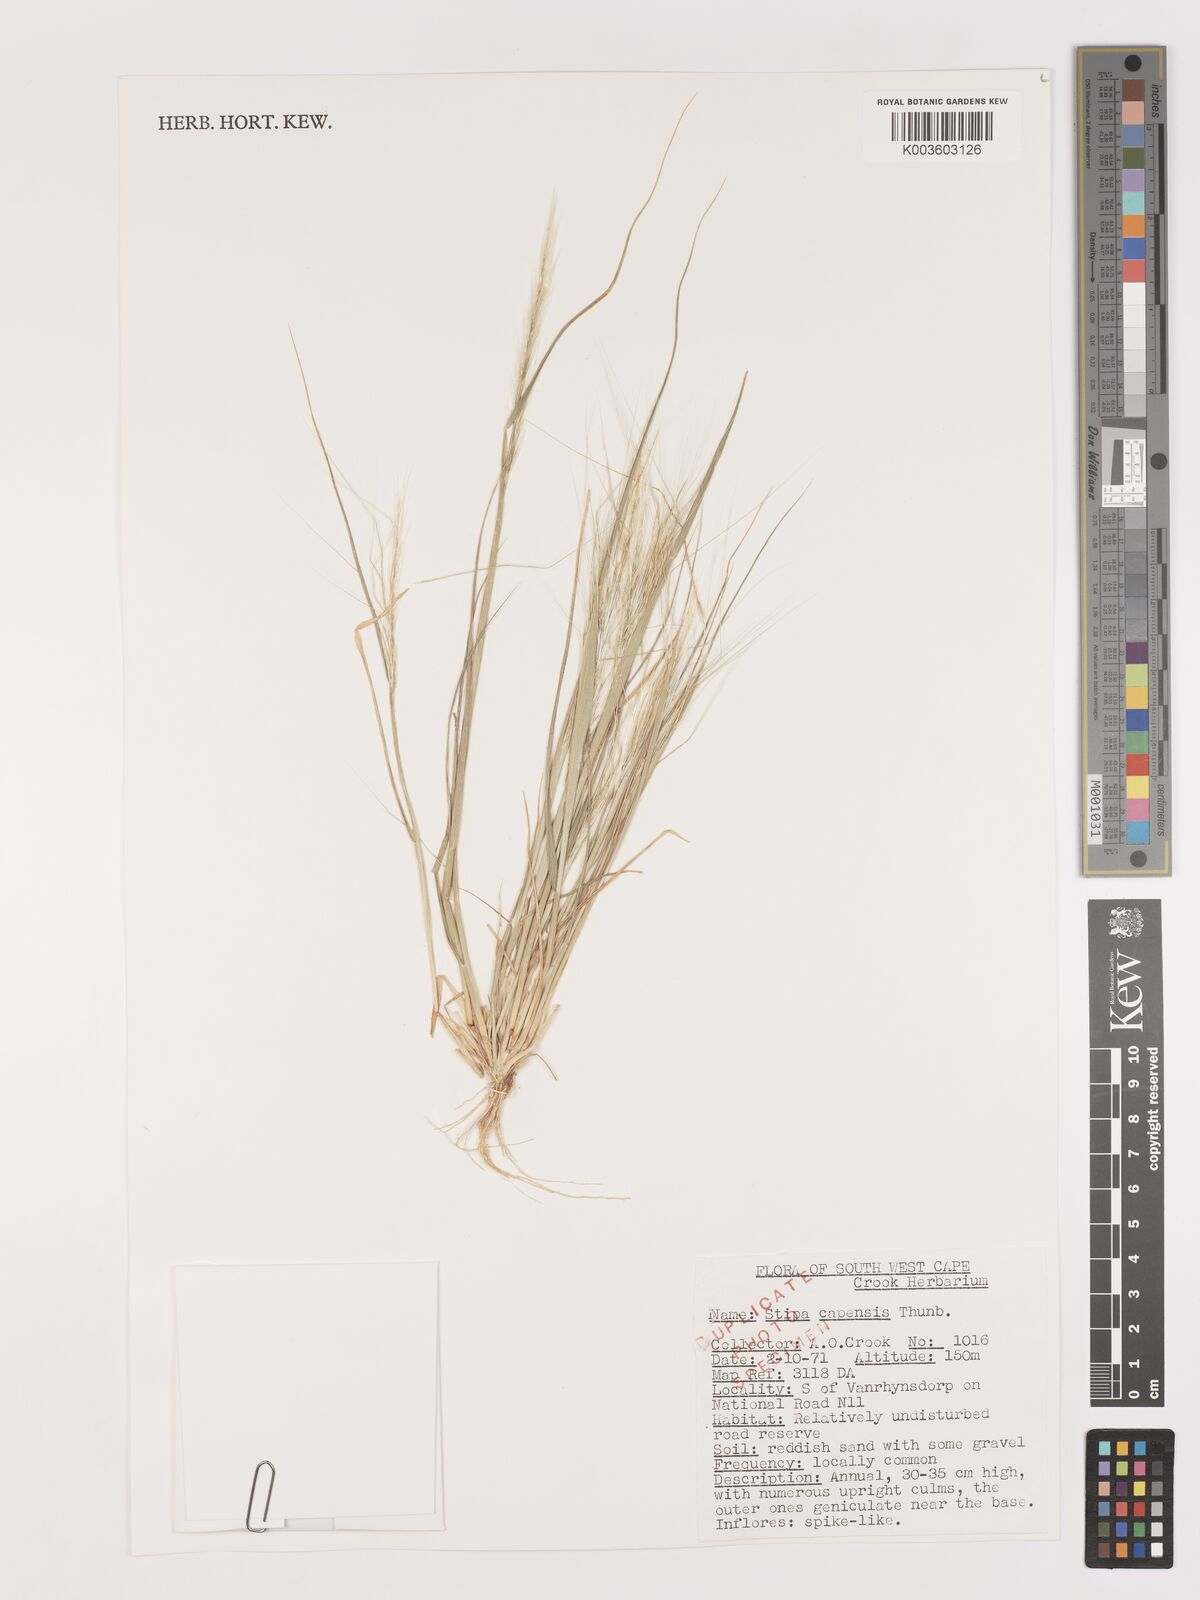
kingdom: Plantae
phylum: Tracheophyta
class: Liliopsida
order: Poales
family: Poaceae
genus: Stipellula
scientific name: Stipellula capensis
